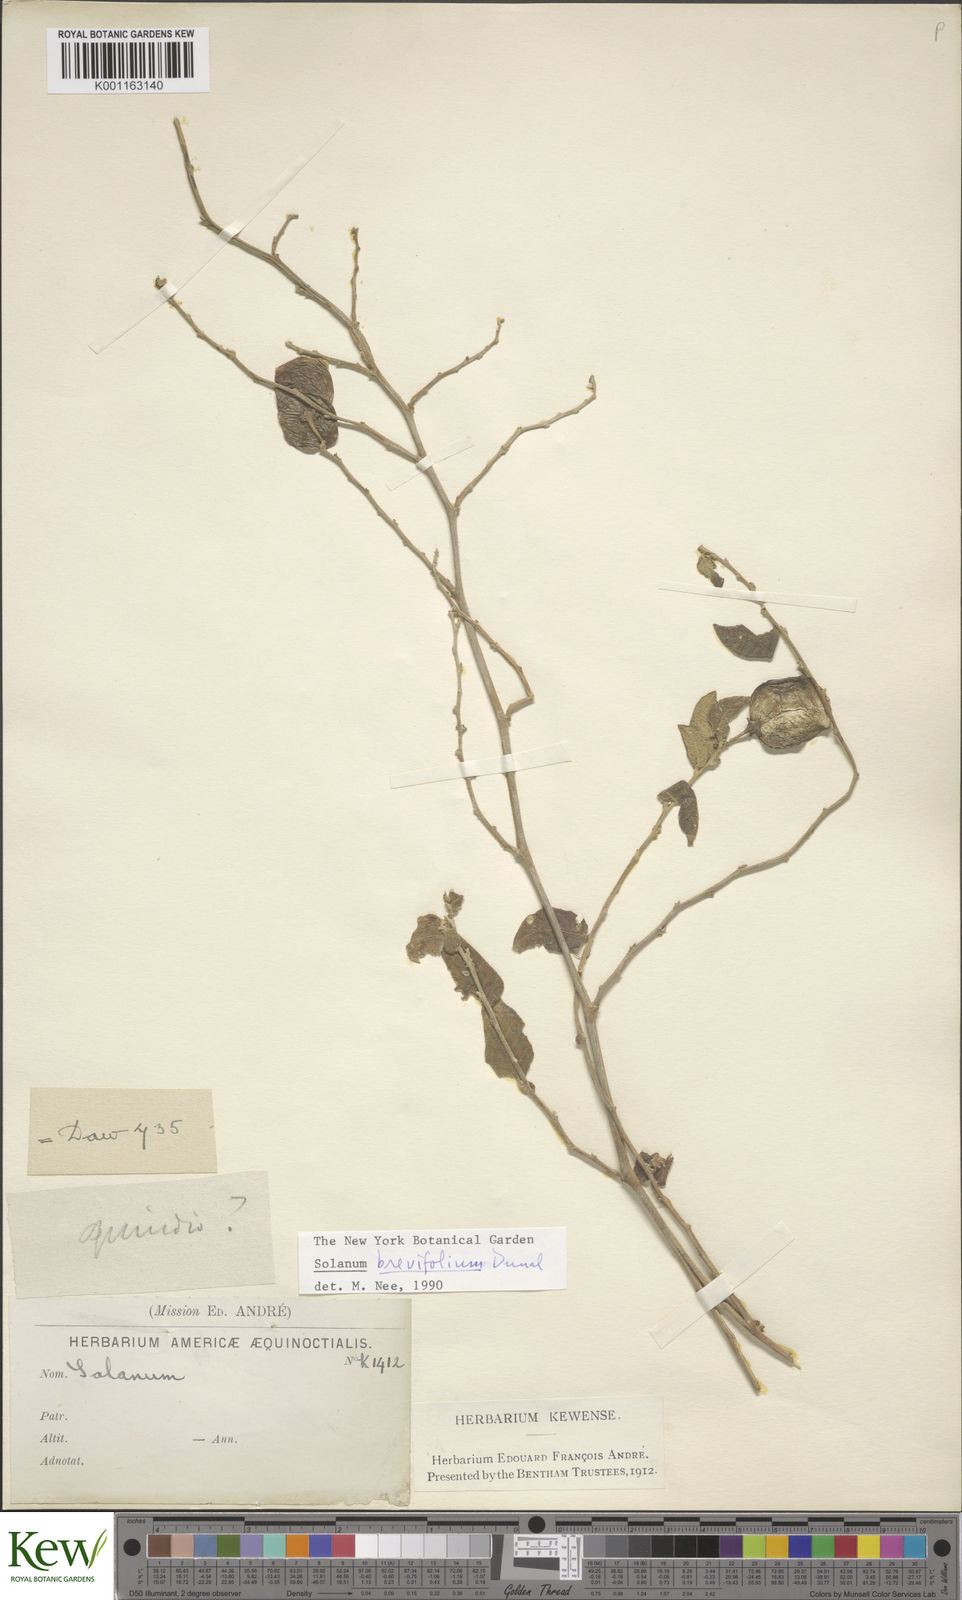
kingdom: Plantae
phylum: Tracheophyta
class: Magnoliopsida
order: Solanales
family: Solanaceae
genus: Solanum
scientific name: Solanum brevifolium
